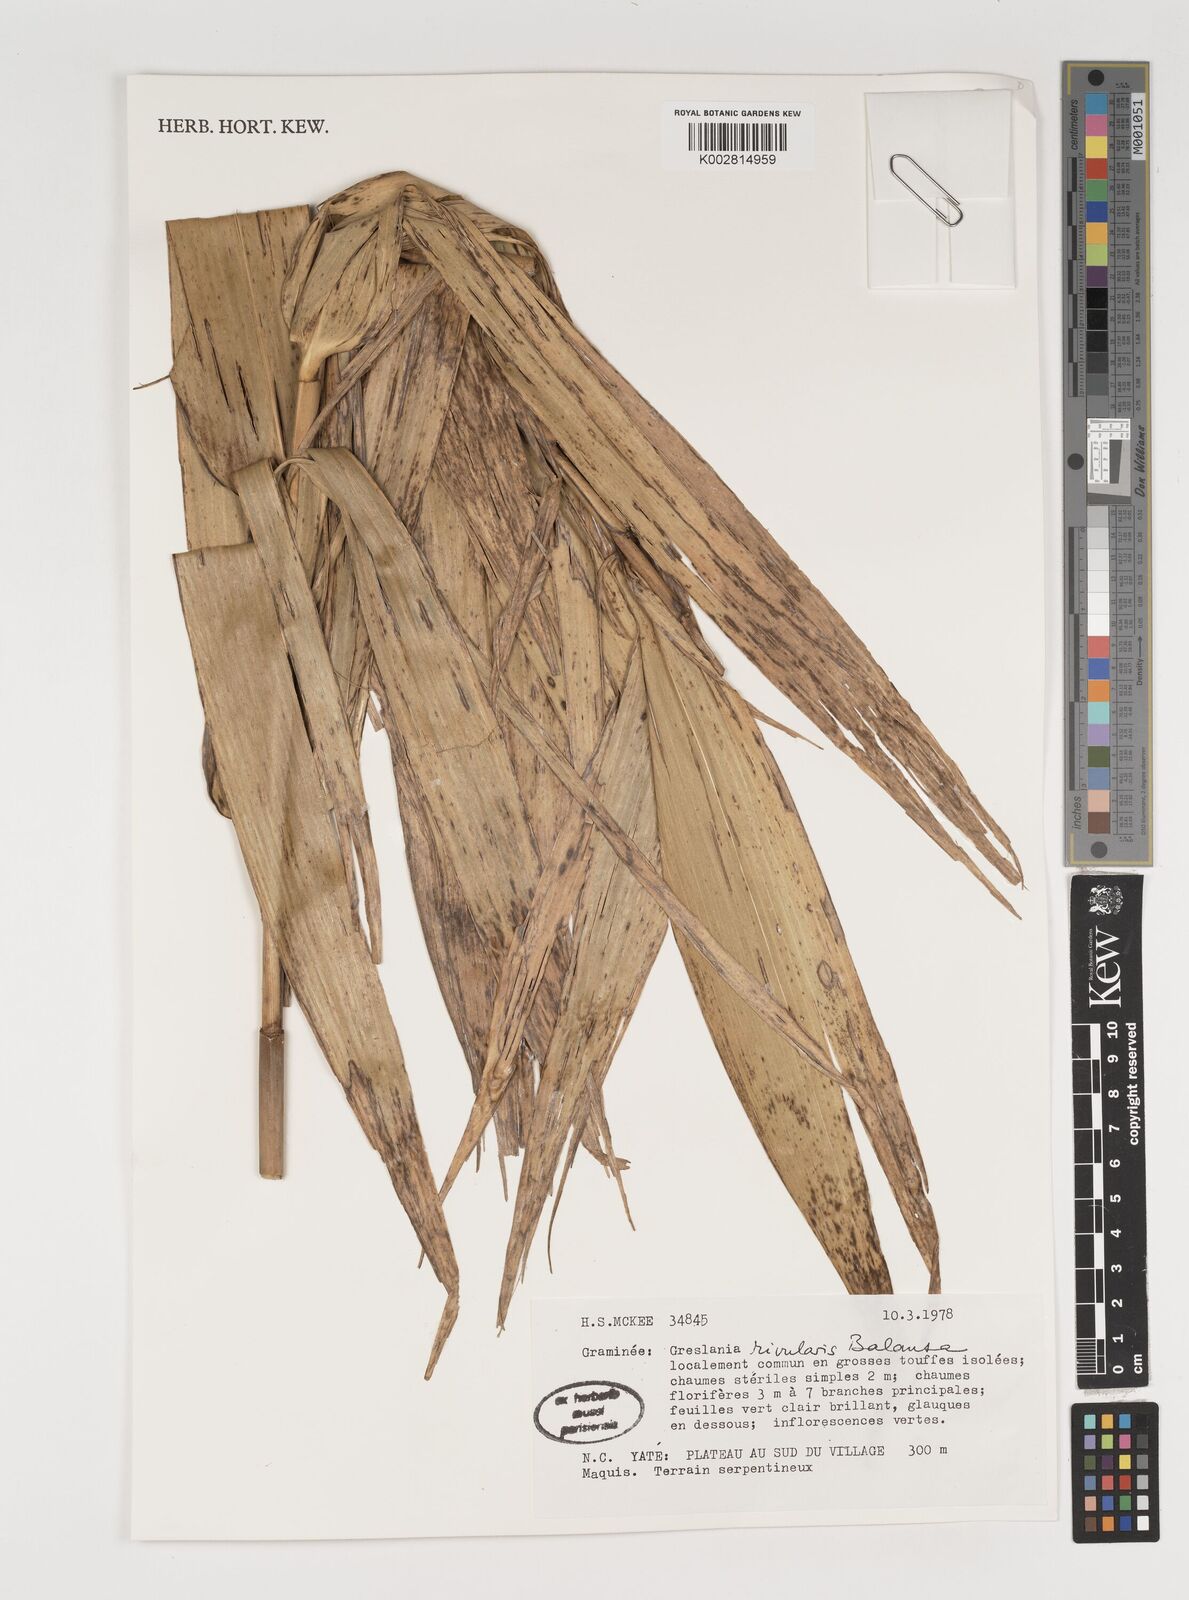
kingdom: Plantae
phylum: Tracheophyta
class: Liliopsida
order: Poales
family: Poaceae
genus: Greslania
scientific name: Greslania rivularis
